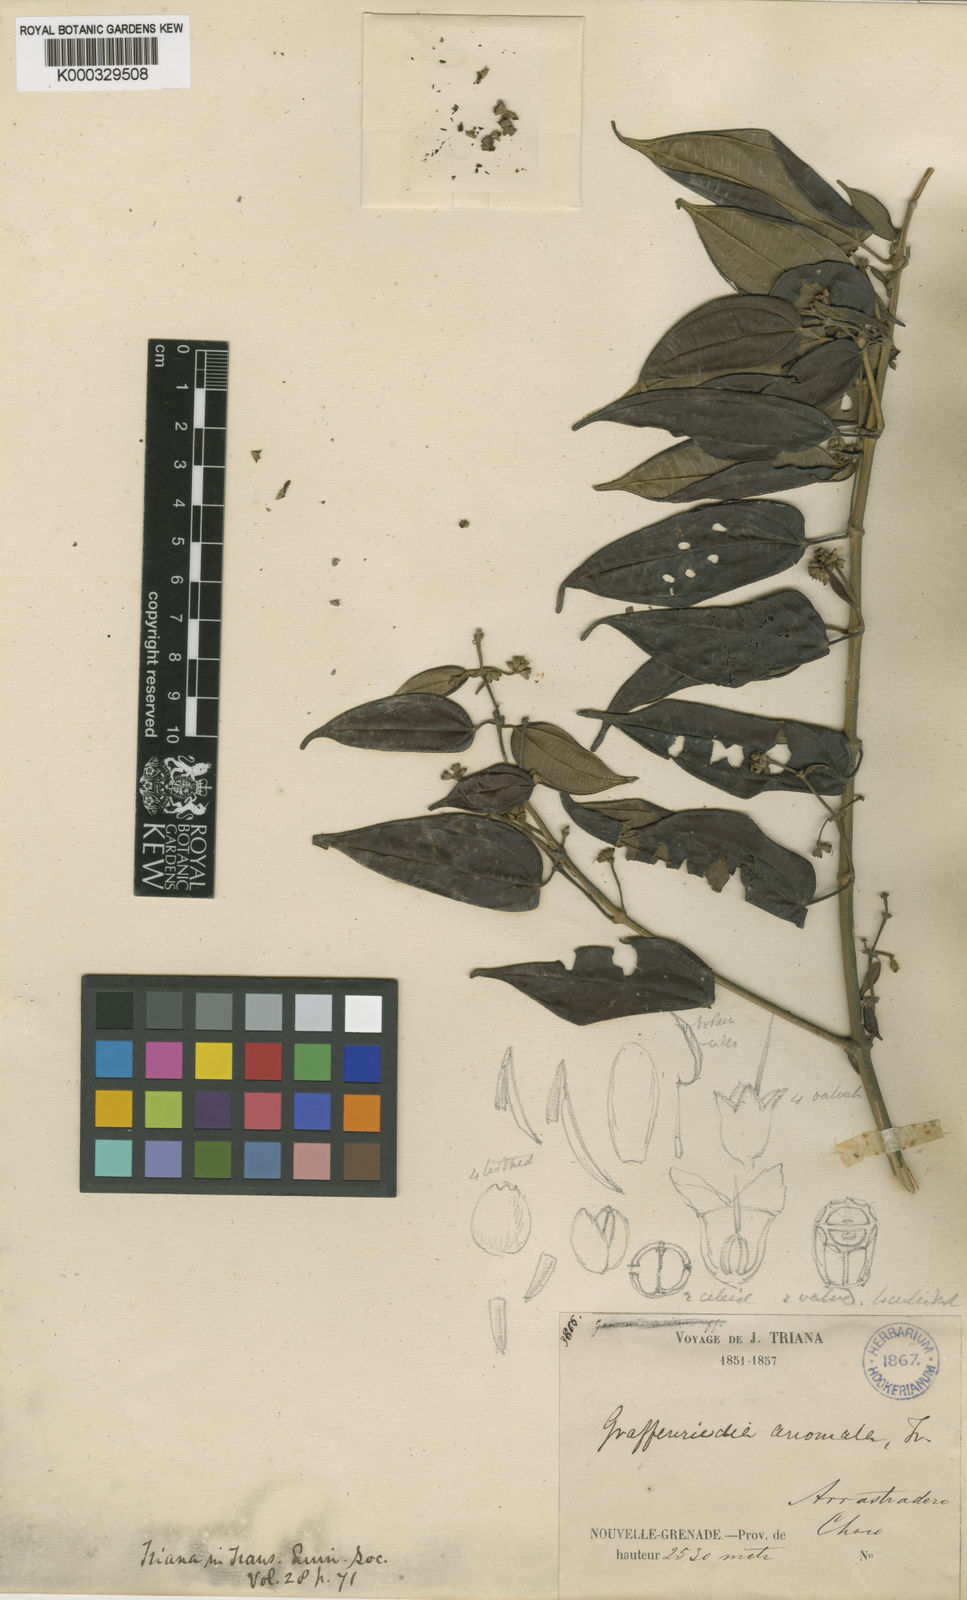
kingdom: Plantae
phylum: Tracheophyta
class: Magnoliopsida
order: Myrtales
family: Melastomataceae
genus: Graffenrieda
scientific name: Graffenrieda anomala
